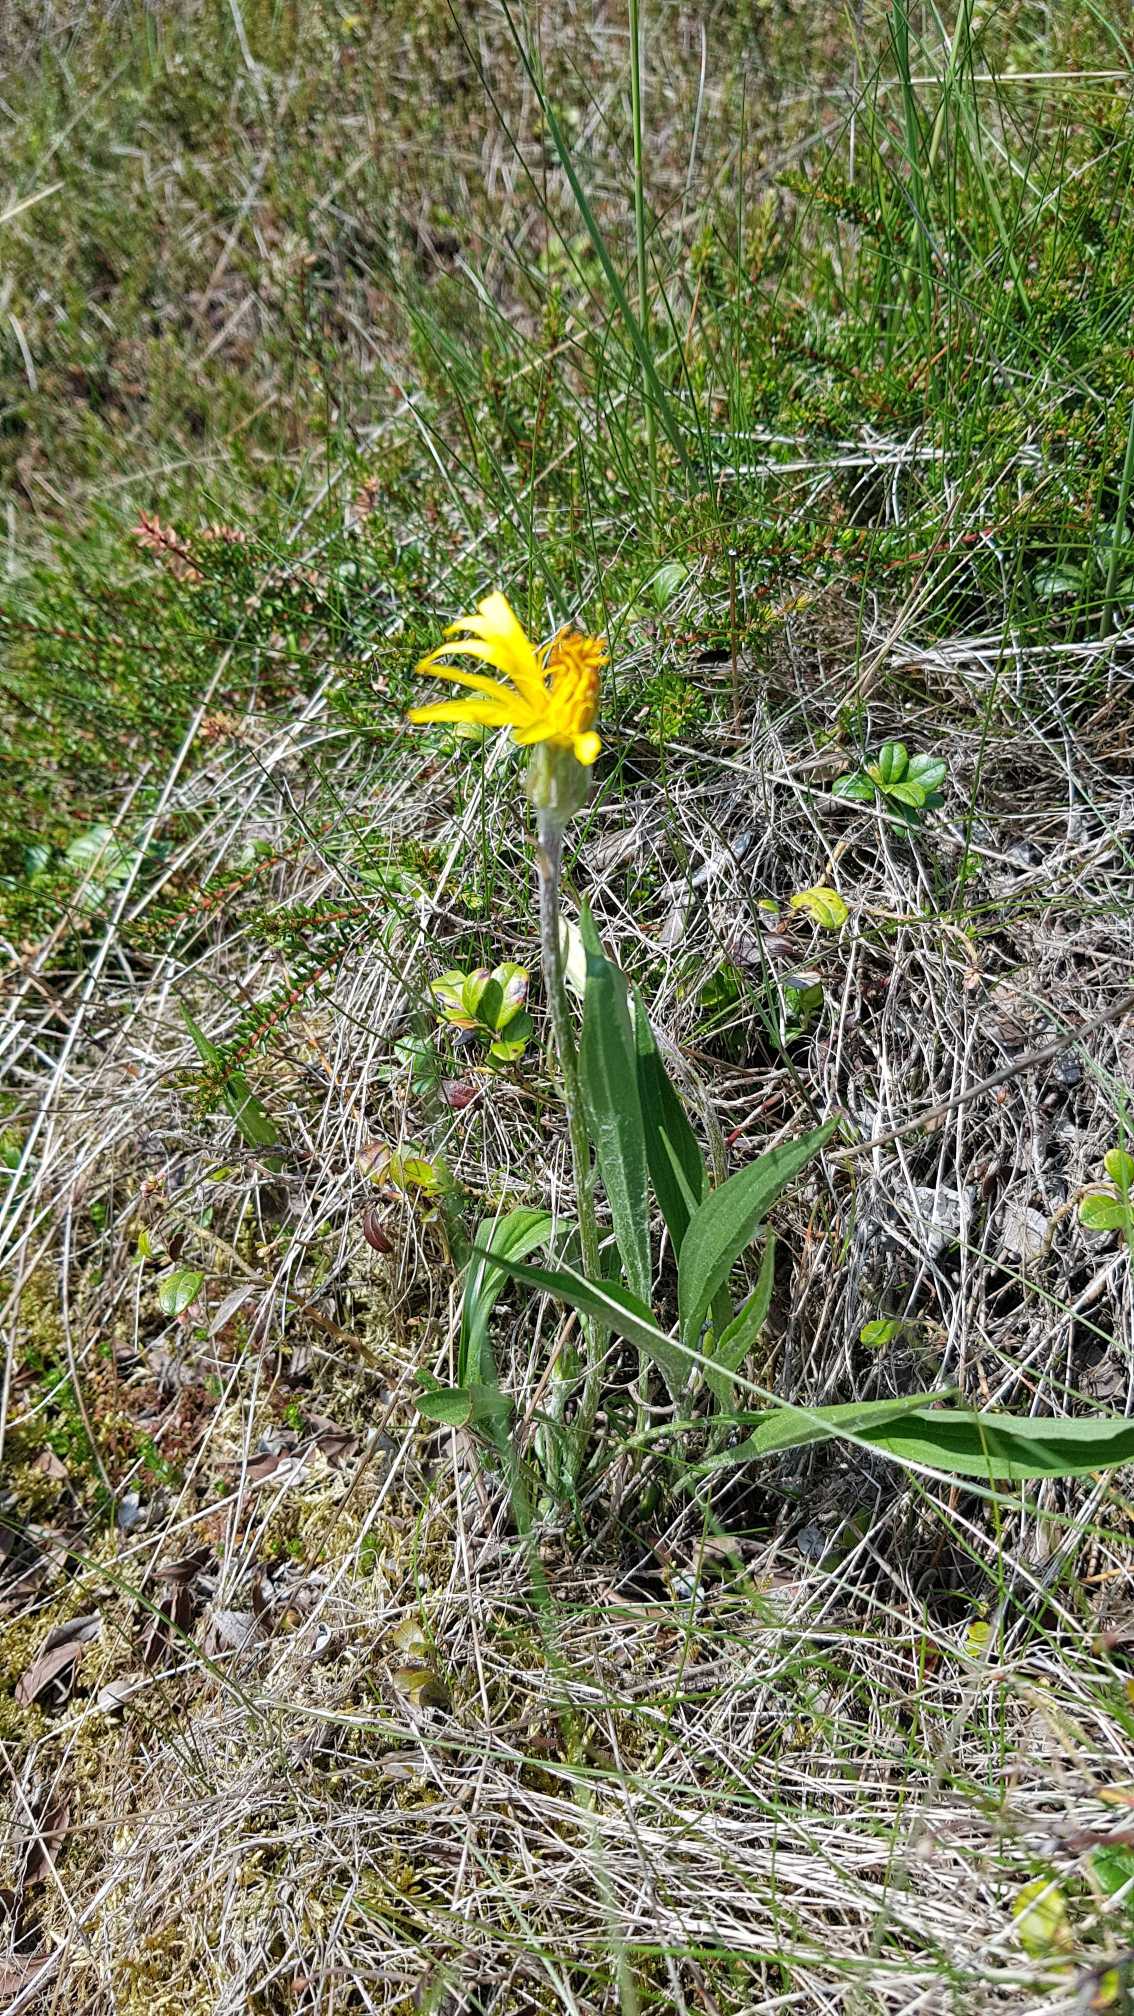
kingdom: Plantae
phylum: Tracheophyta
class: Magnoliopsida
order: Asterales
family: Asteraceae
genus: Scorzonera
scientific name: Scorzonera humilis
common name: Lav skorsoner
